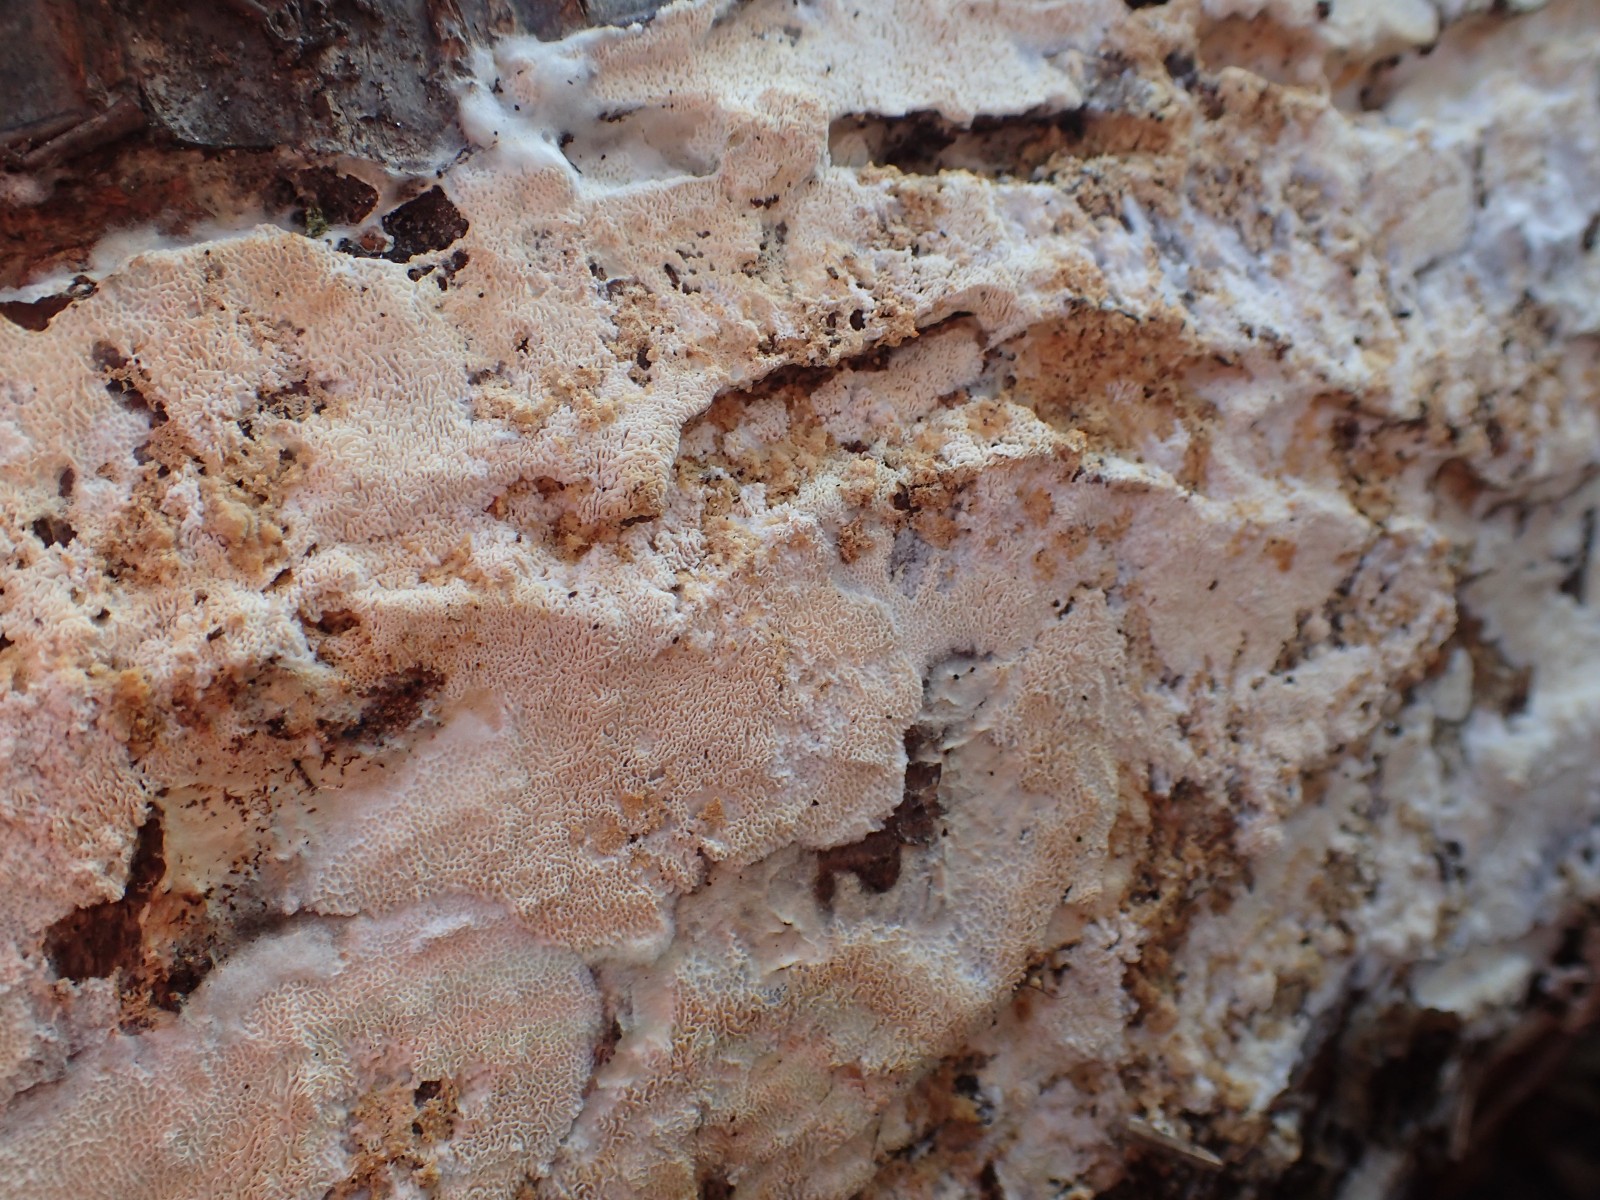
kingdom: Fungi
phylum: Basidiomycota
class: Agaricomycetes
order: Hymenochaetales
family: Schizoporaceae
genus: Xylodon
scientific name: Xylodon subtropicus
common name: labyrint-tandsvamp
